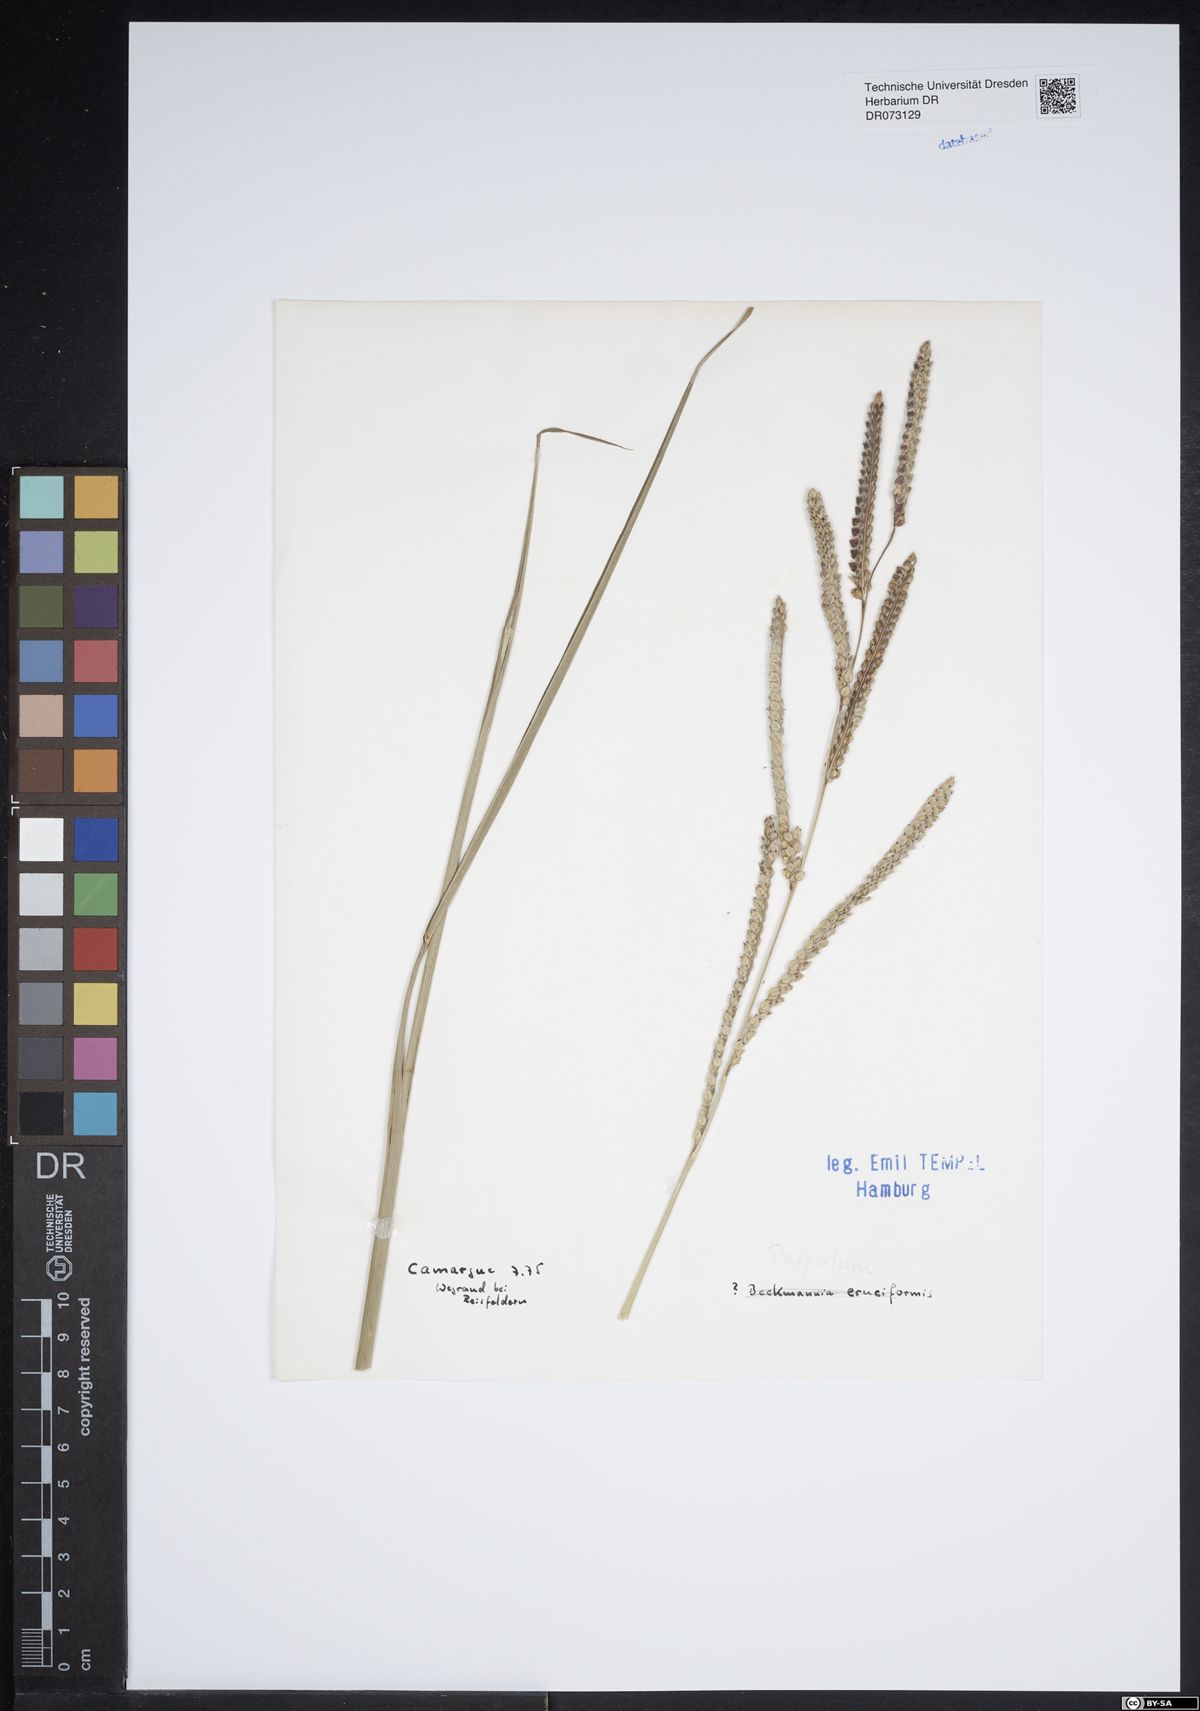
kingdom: Plantae
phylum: Tracheophyta
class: Liliopsida
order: Poales
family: Poaceae
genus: Paspalum
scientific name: Paspalum
